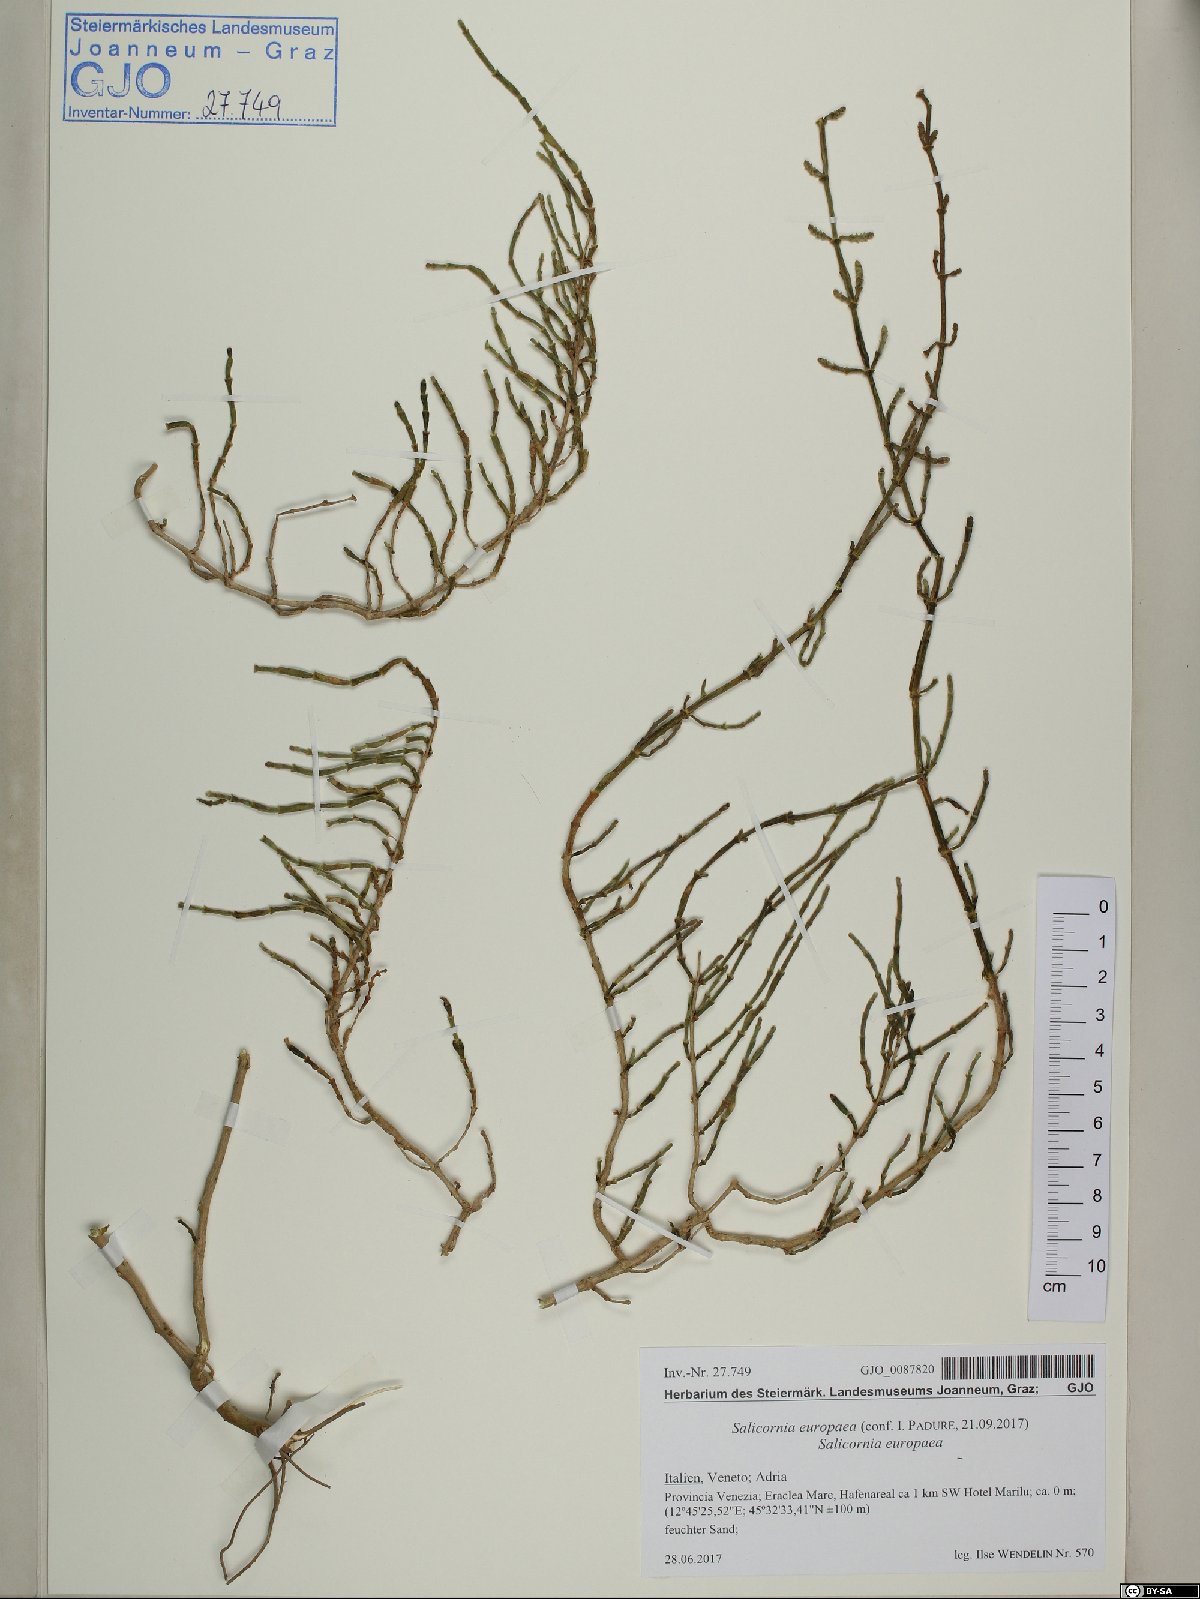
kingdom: Plantae
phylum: Tracheophyta
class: Magnoliopsida
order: Caryophyllales
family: Amaranthaceae
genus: Salicornia
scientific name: Salicornia europaea
